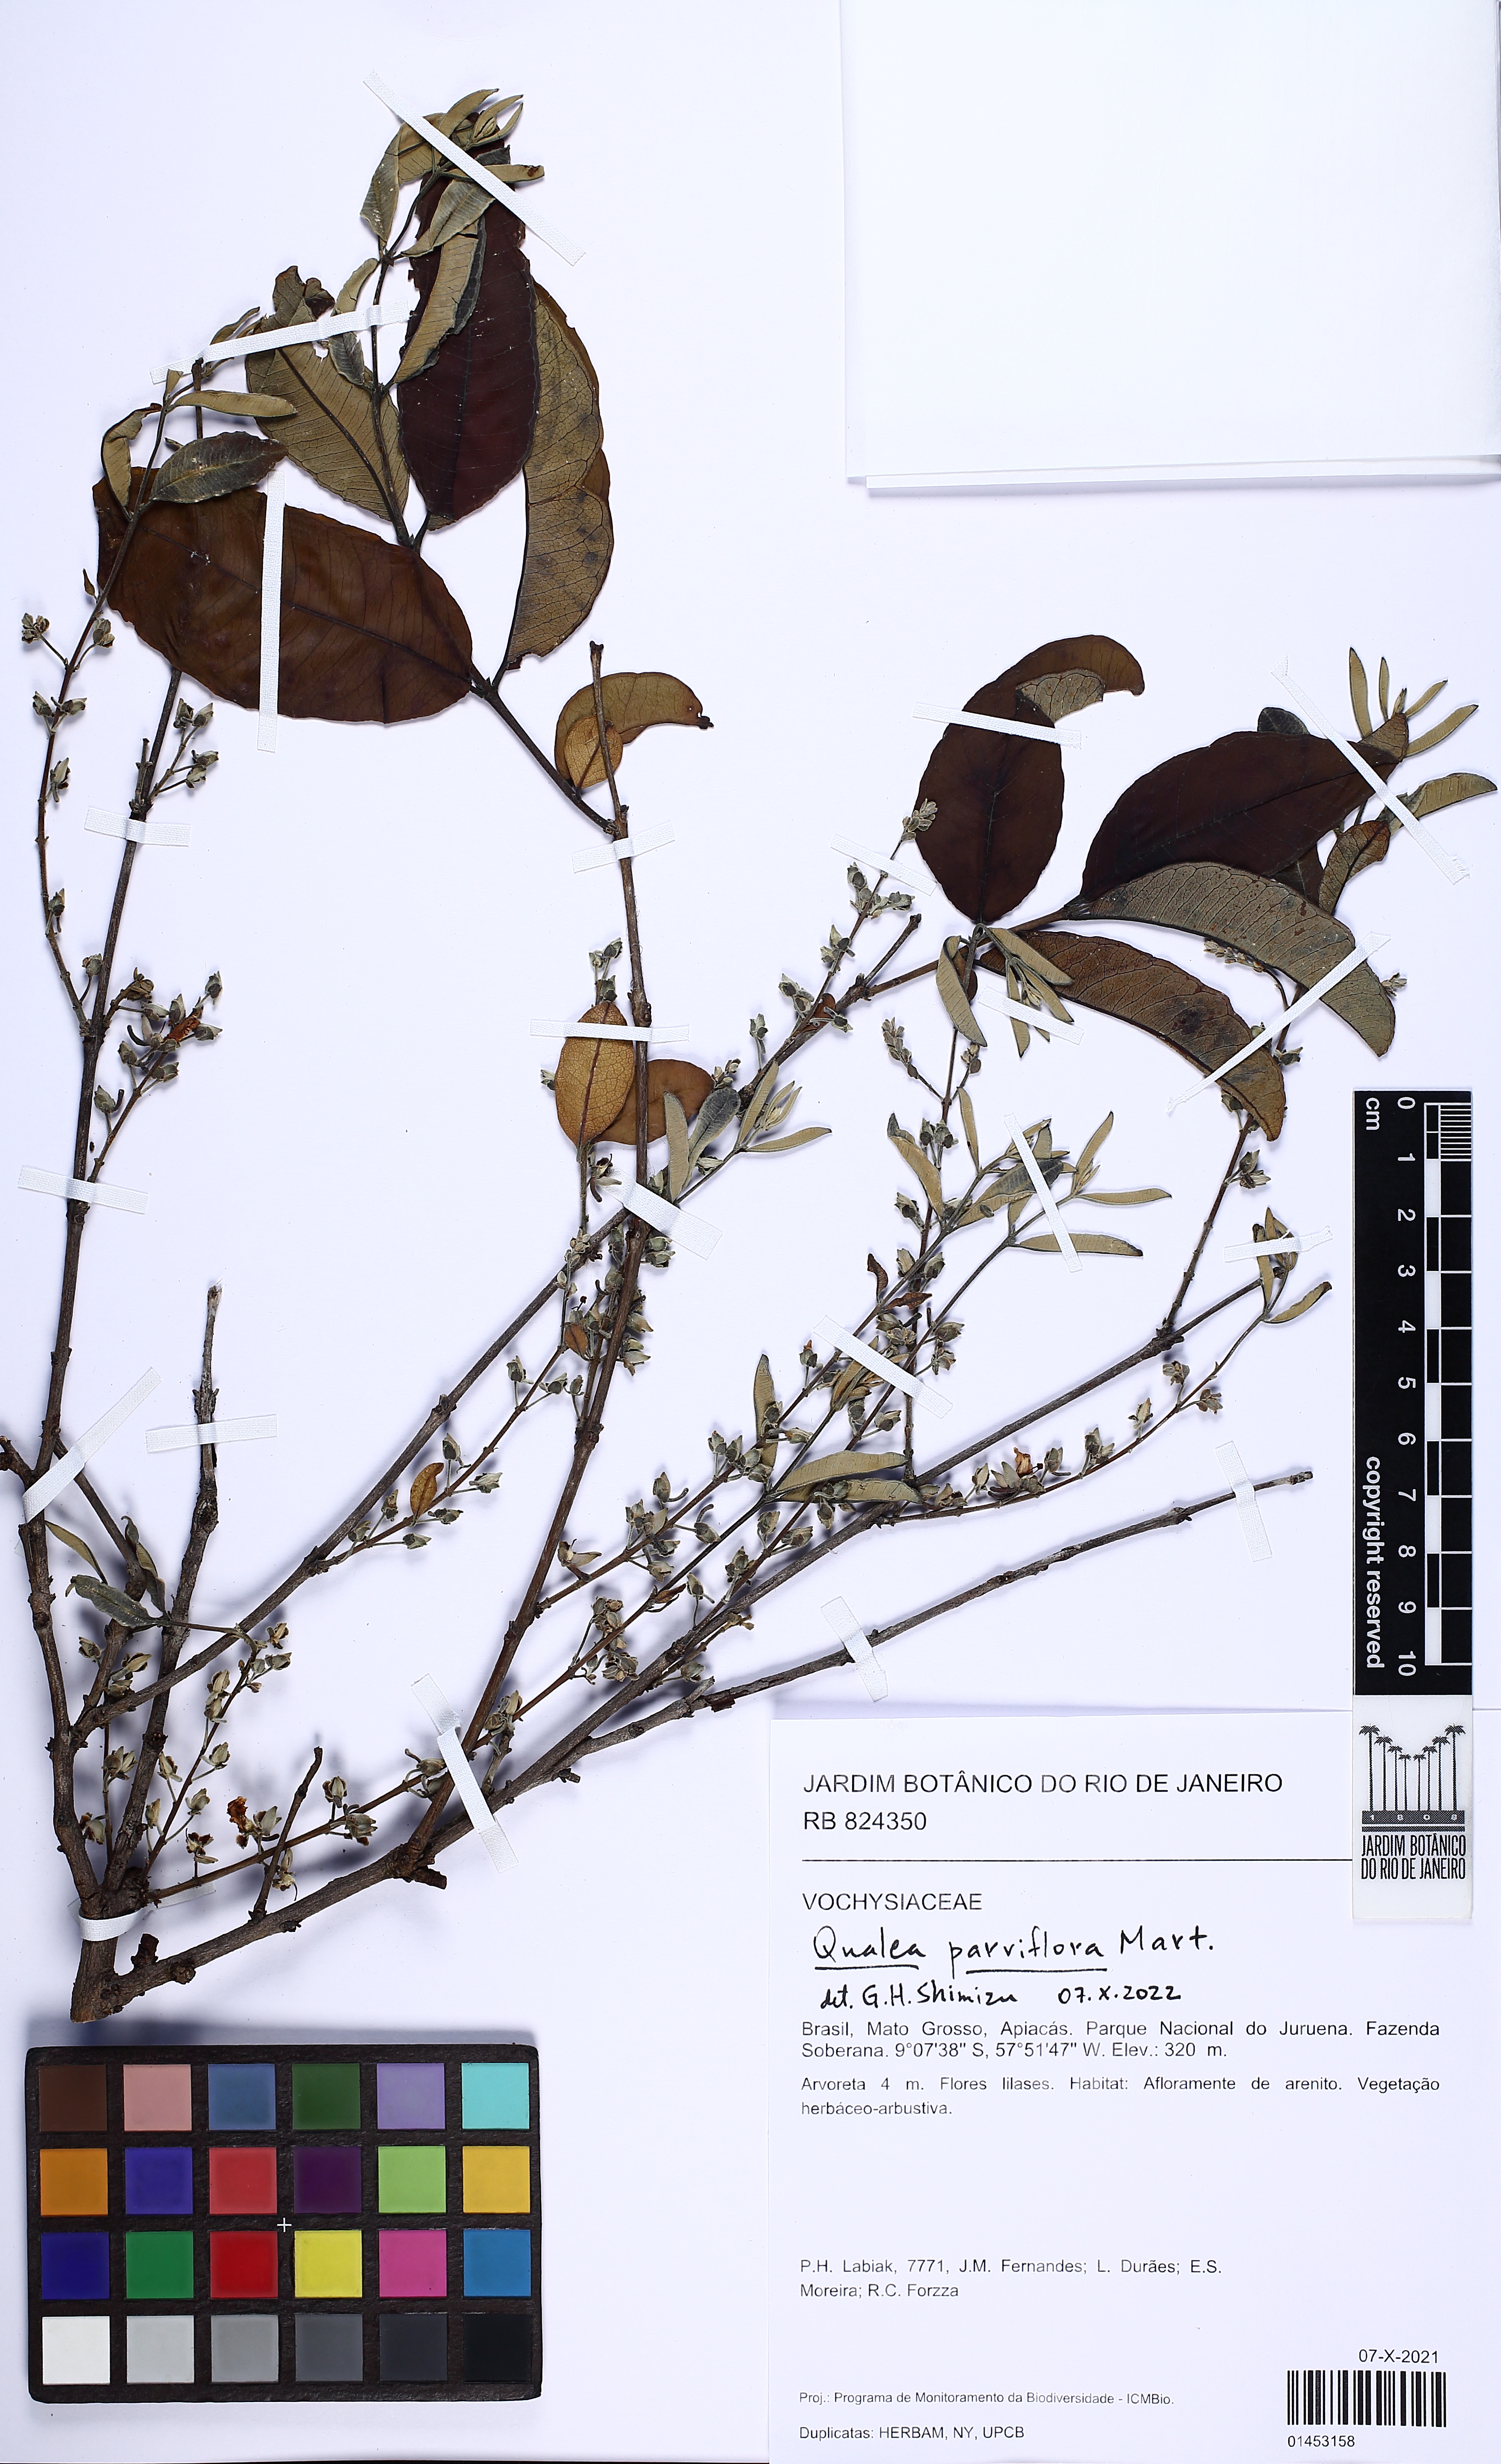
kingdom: Plantae
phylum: Tracheophyta
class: Magnoliopsida
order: Myrtales
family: Vochysiaceae
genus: Qualea
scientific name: Qualea parviflora
